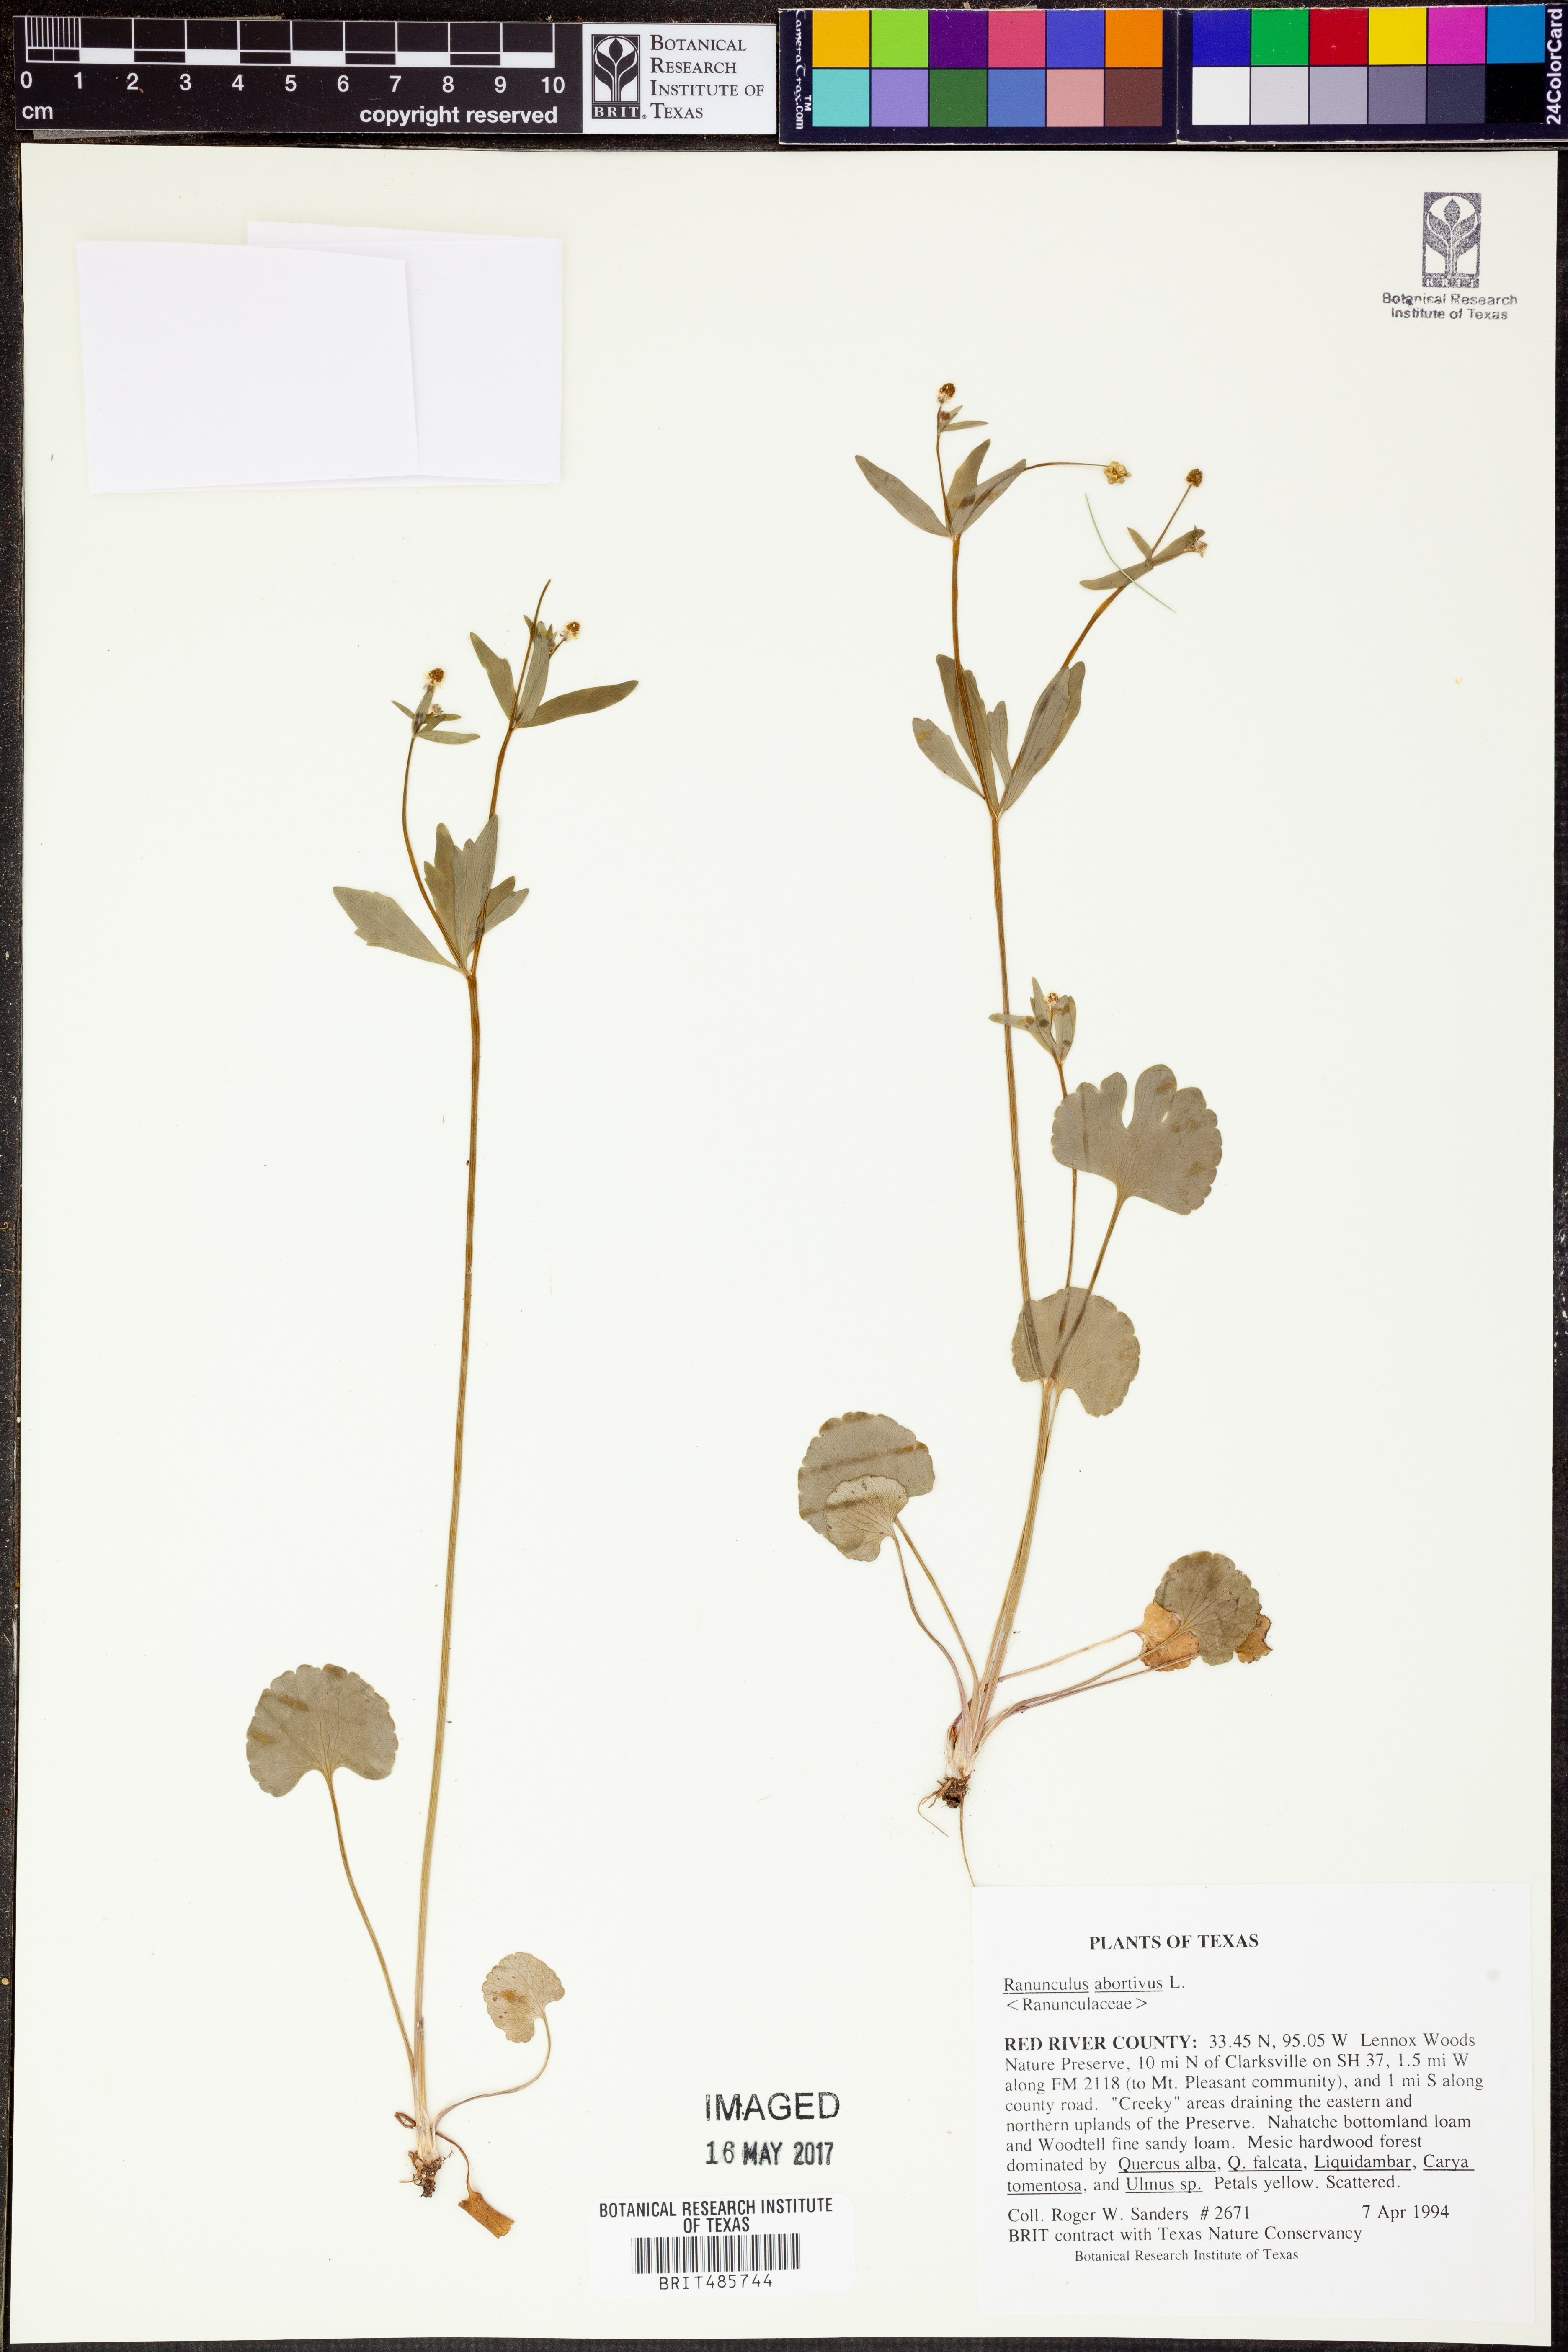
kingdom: Plantae
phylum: Tracheophyta
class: Magnoliopsida
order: Ranunculales
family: Ranunculaceae
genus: Ranunculus
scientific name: Ranunculus abortivus
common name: Early wood buttercup
